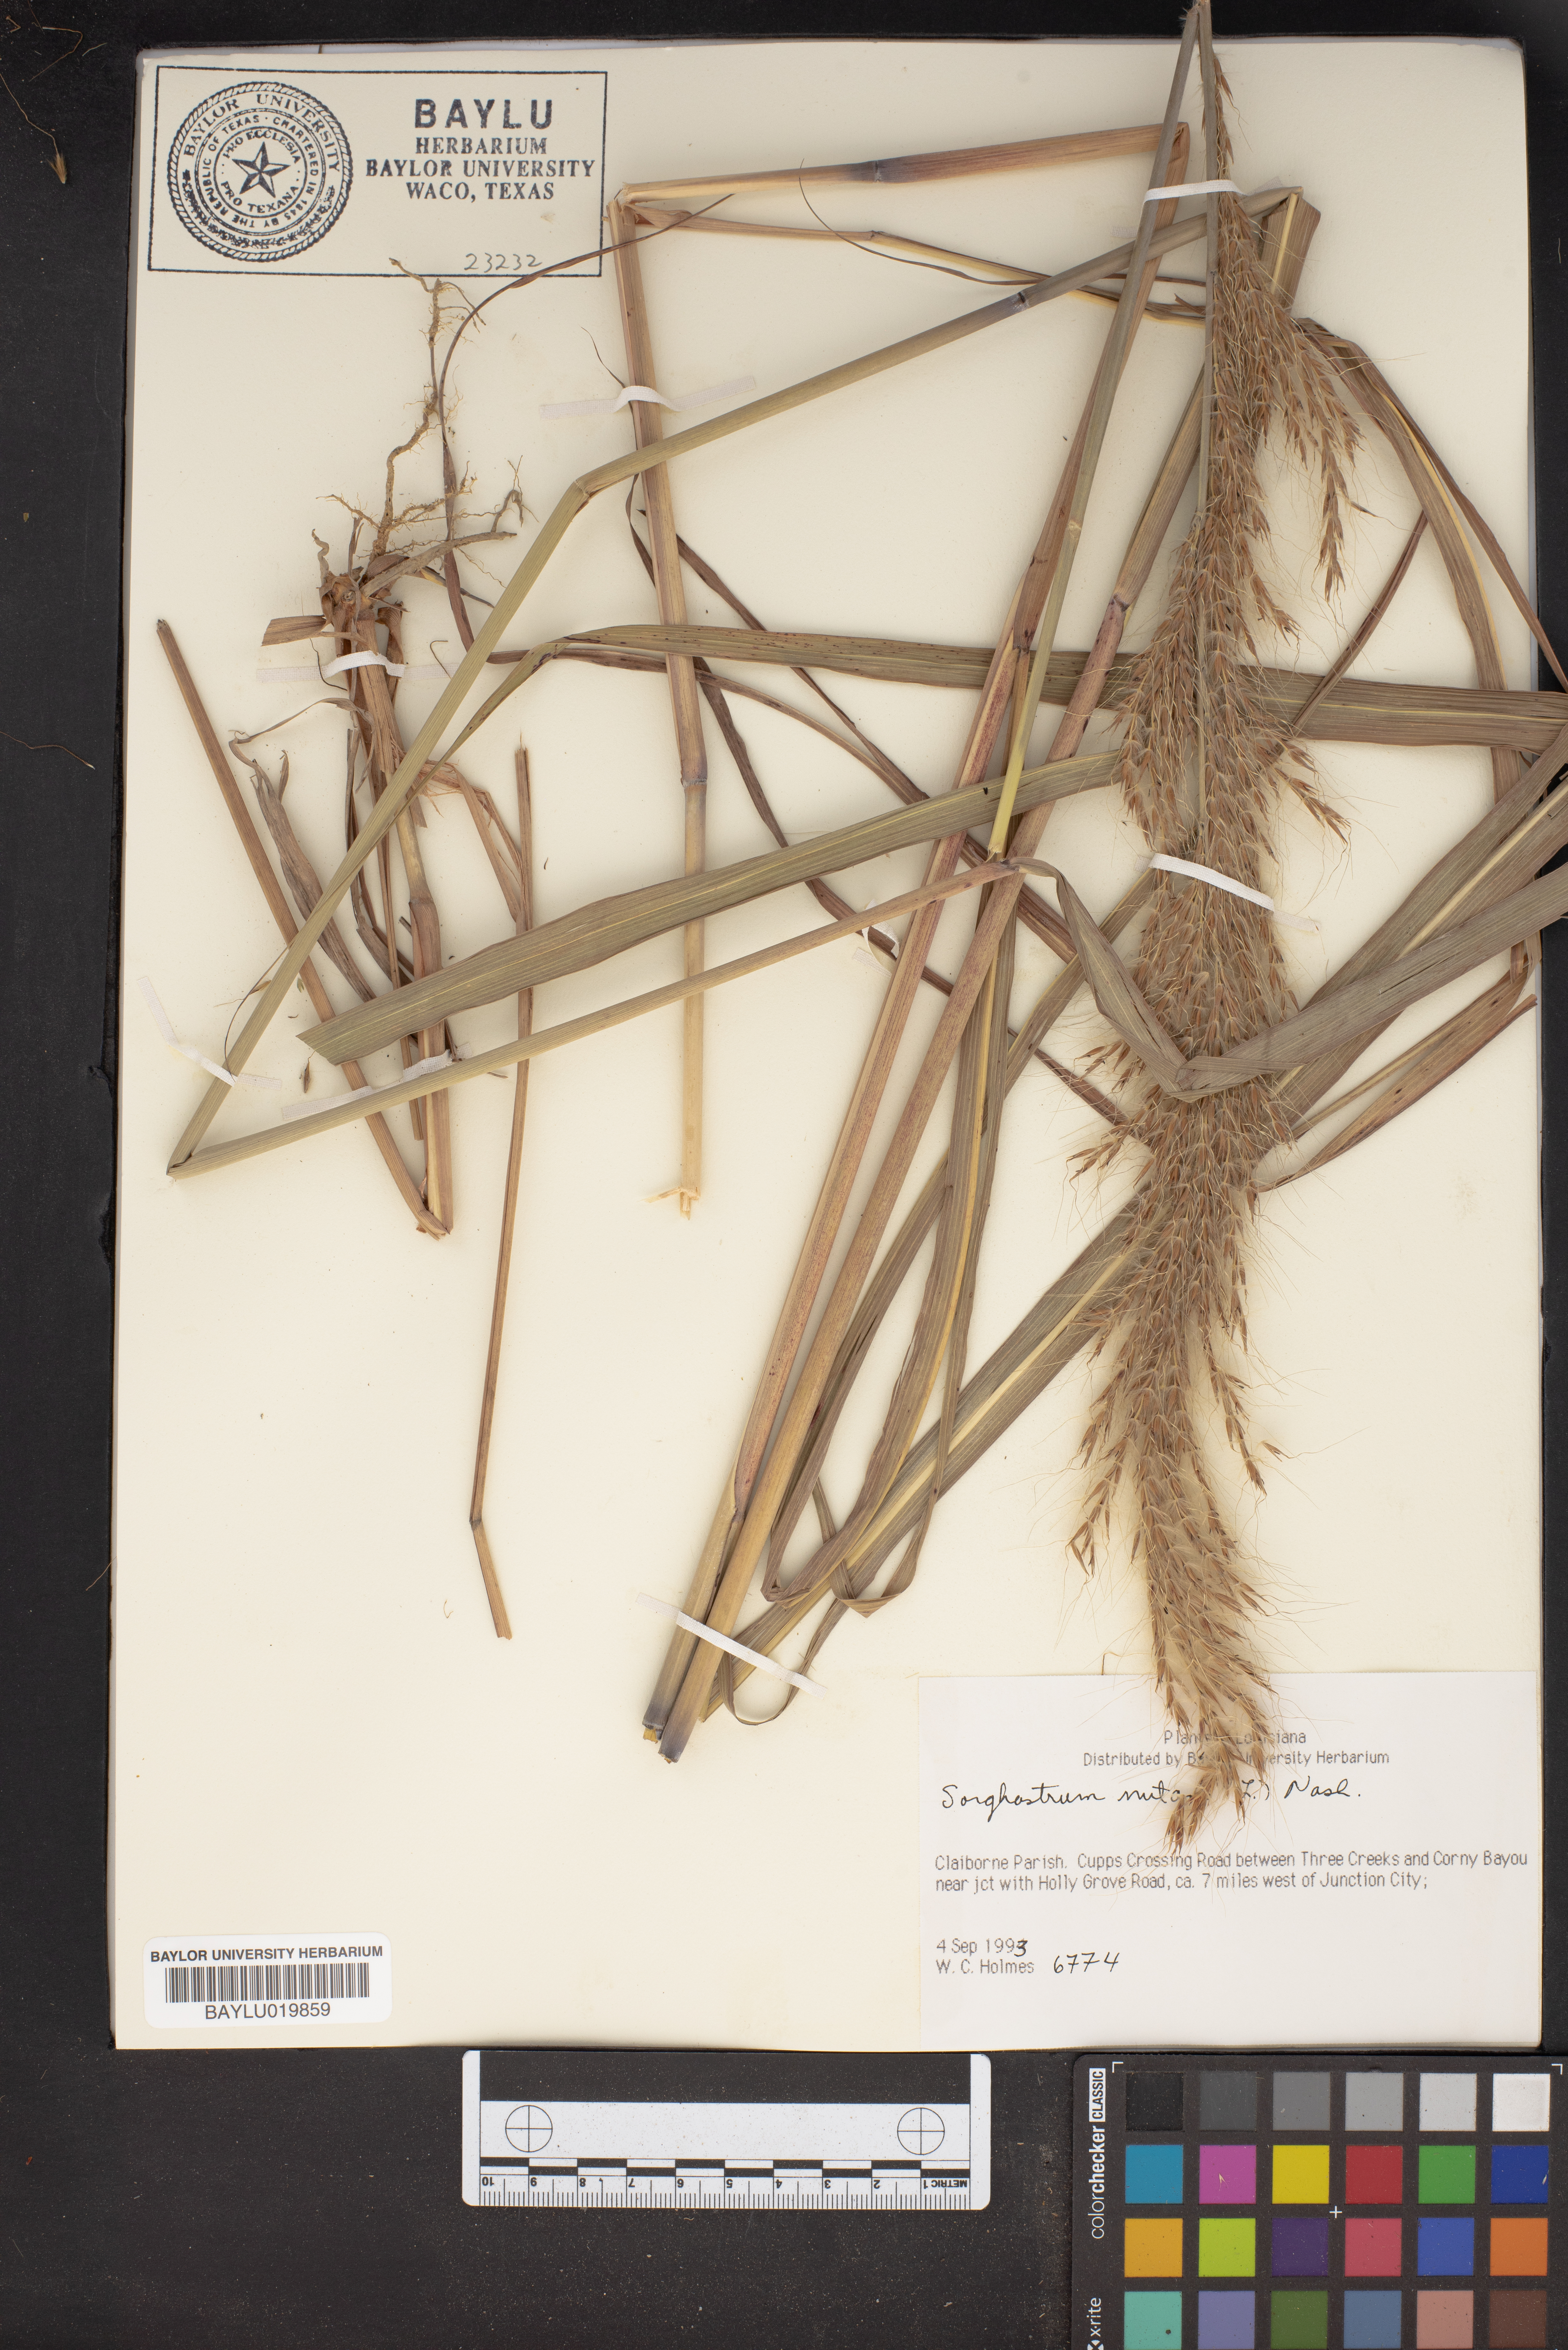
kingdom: Plantae
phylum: Tracheophyta
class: Liliopsida
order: Poales
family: Poaceae
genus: Sorghastrum
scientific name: Sorghastrum nutans
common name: Indian grass
